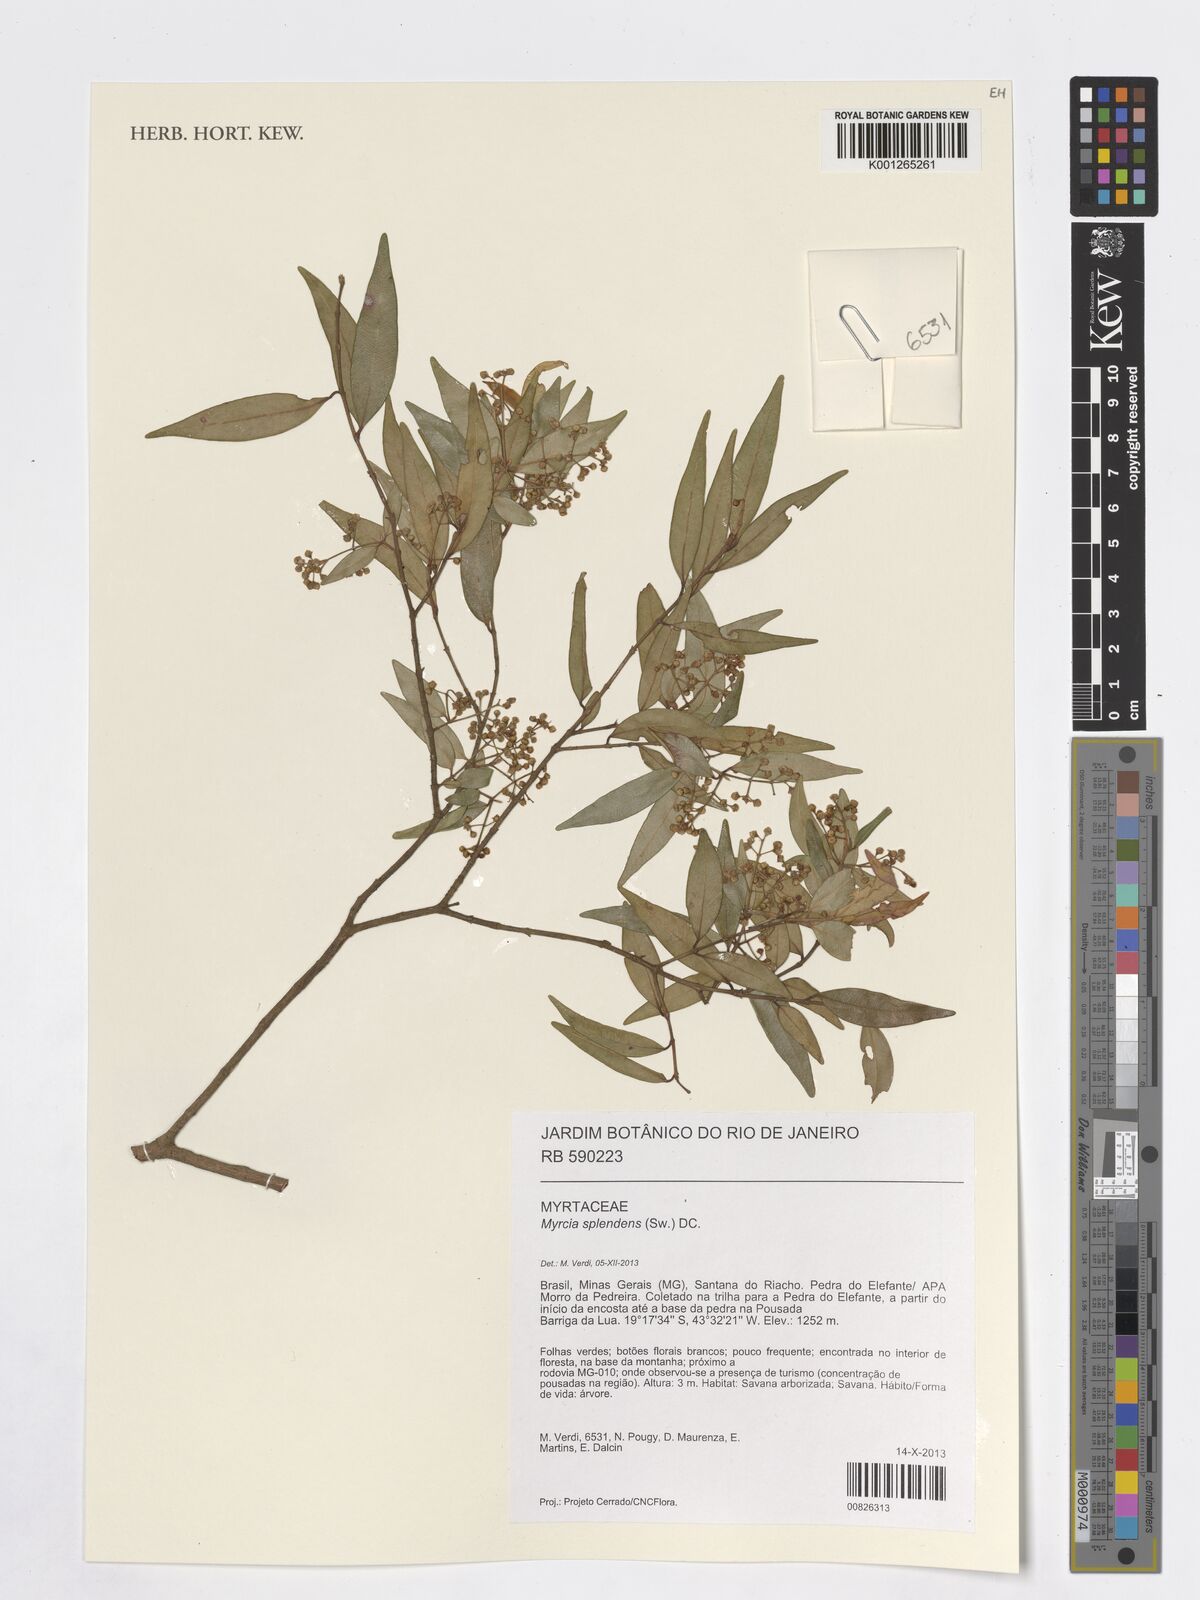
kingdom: Plantae
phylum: Tracheophyta
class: Magnoliopsida
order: Myrtales
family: Myrtaceae
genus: Myrcia
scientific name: Myrcia splendens
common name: Surinam cherry
